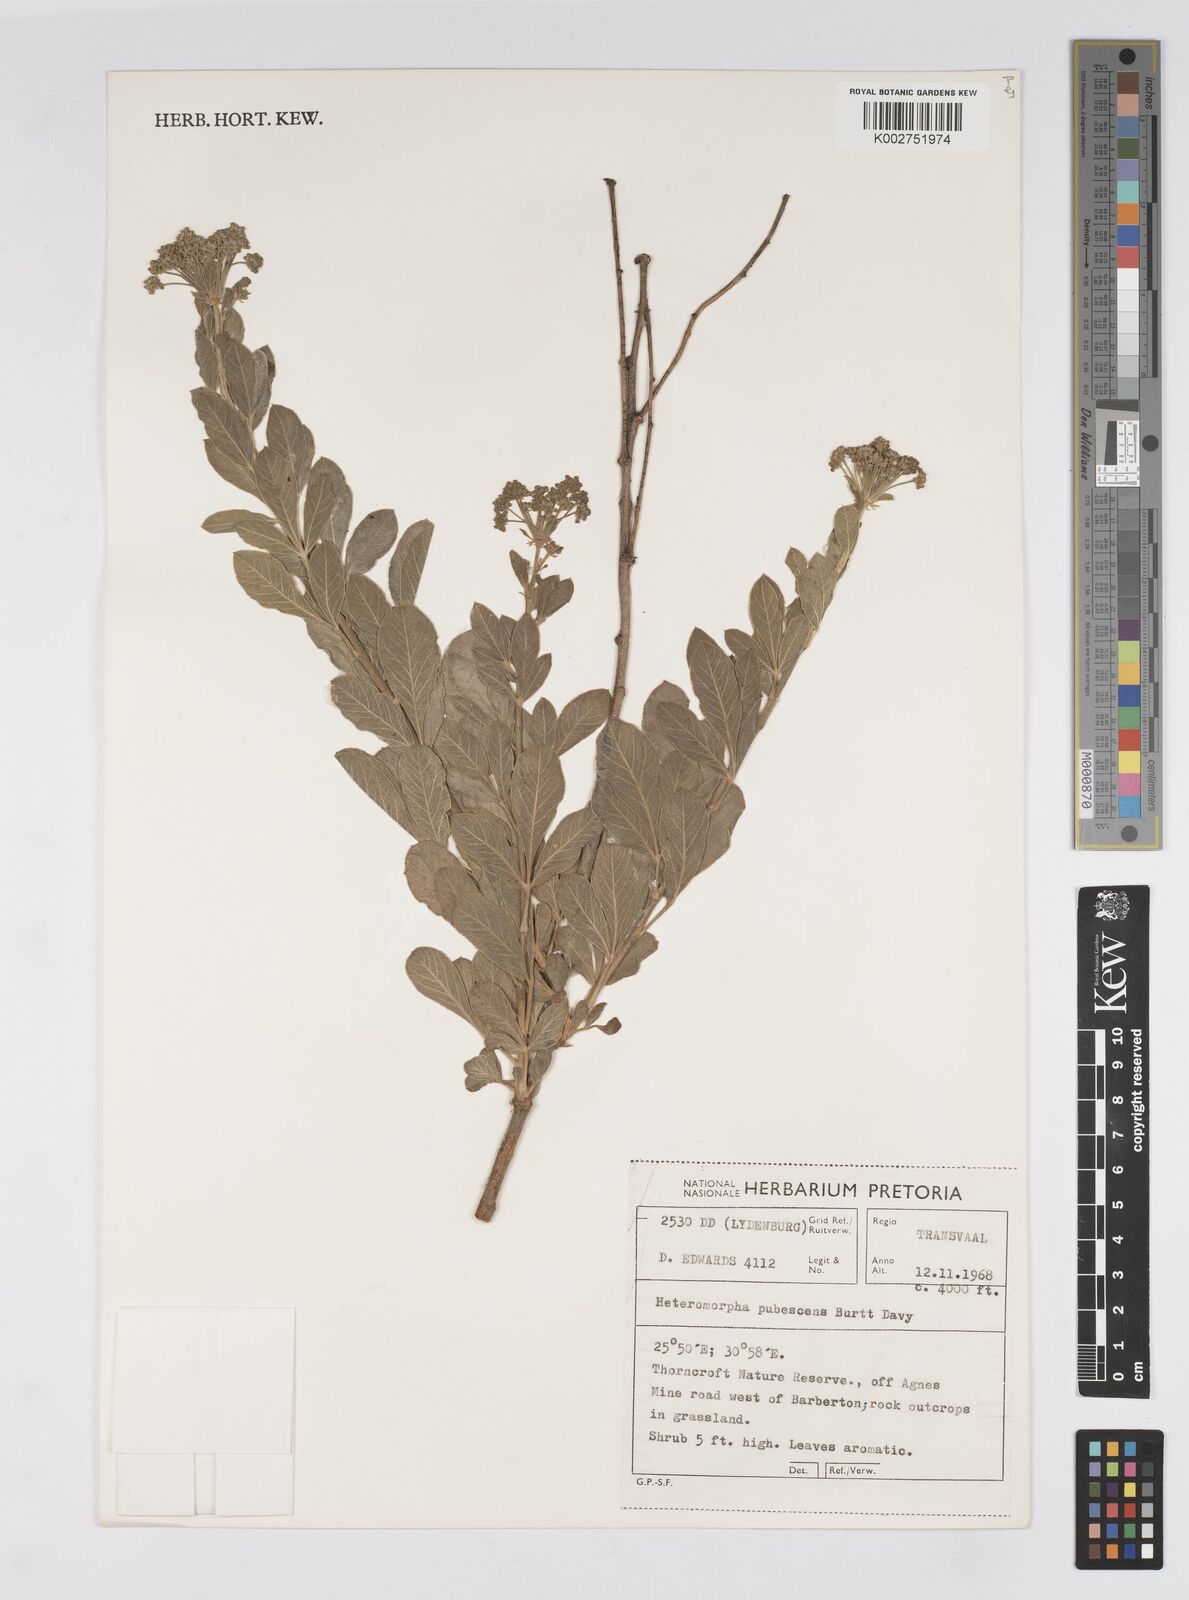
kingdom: Plantae
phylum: Tracheophyta
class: Magnoliopsida
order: Apiales
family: Apiaceae
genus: Heteromorpha
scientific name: Heteromorpha pubescens
